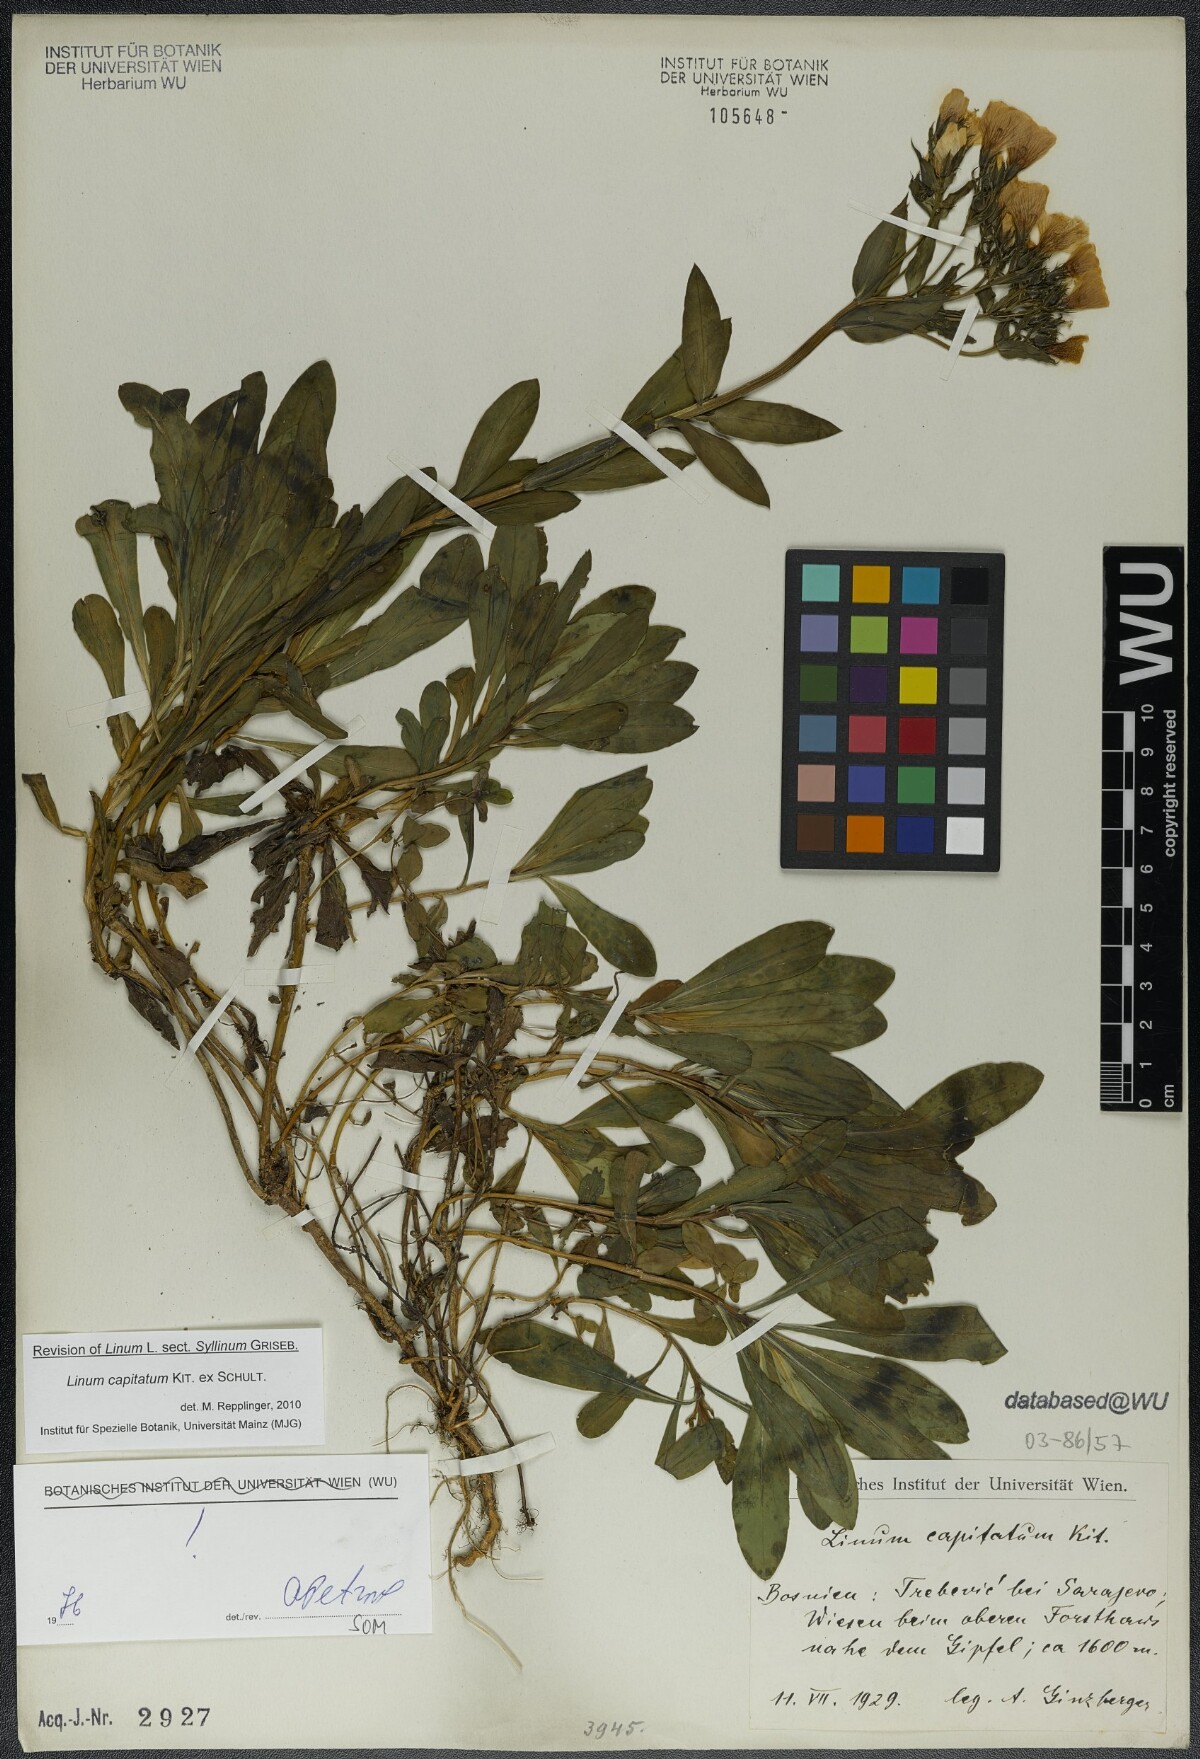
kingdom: Plantae
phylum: Tracheophyta
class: Magnoliopsida
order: Malpighiales
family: Linaceae
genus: Linum
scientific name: Linum capitatum
